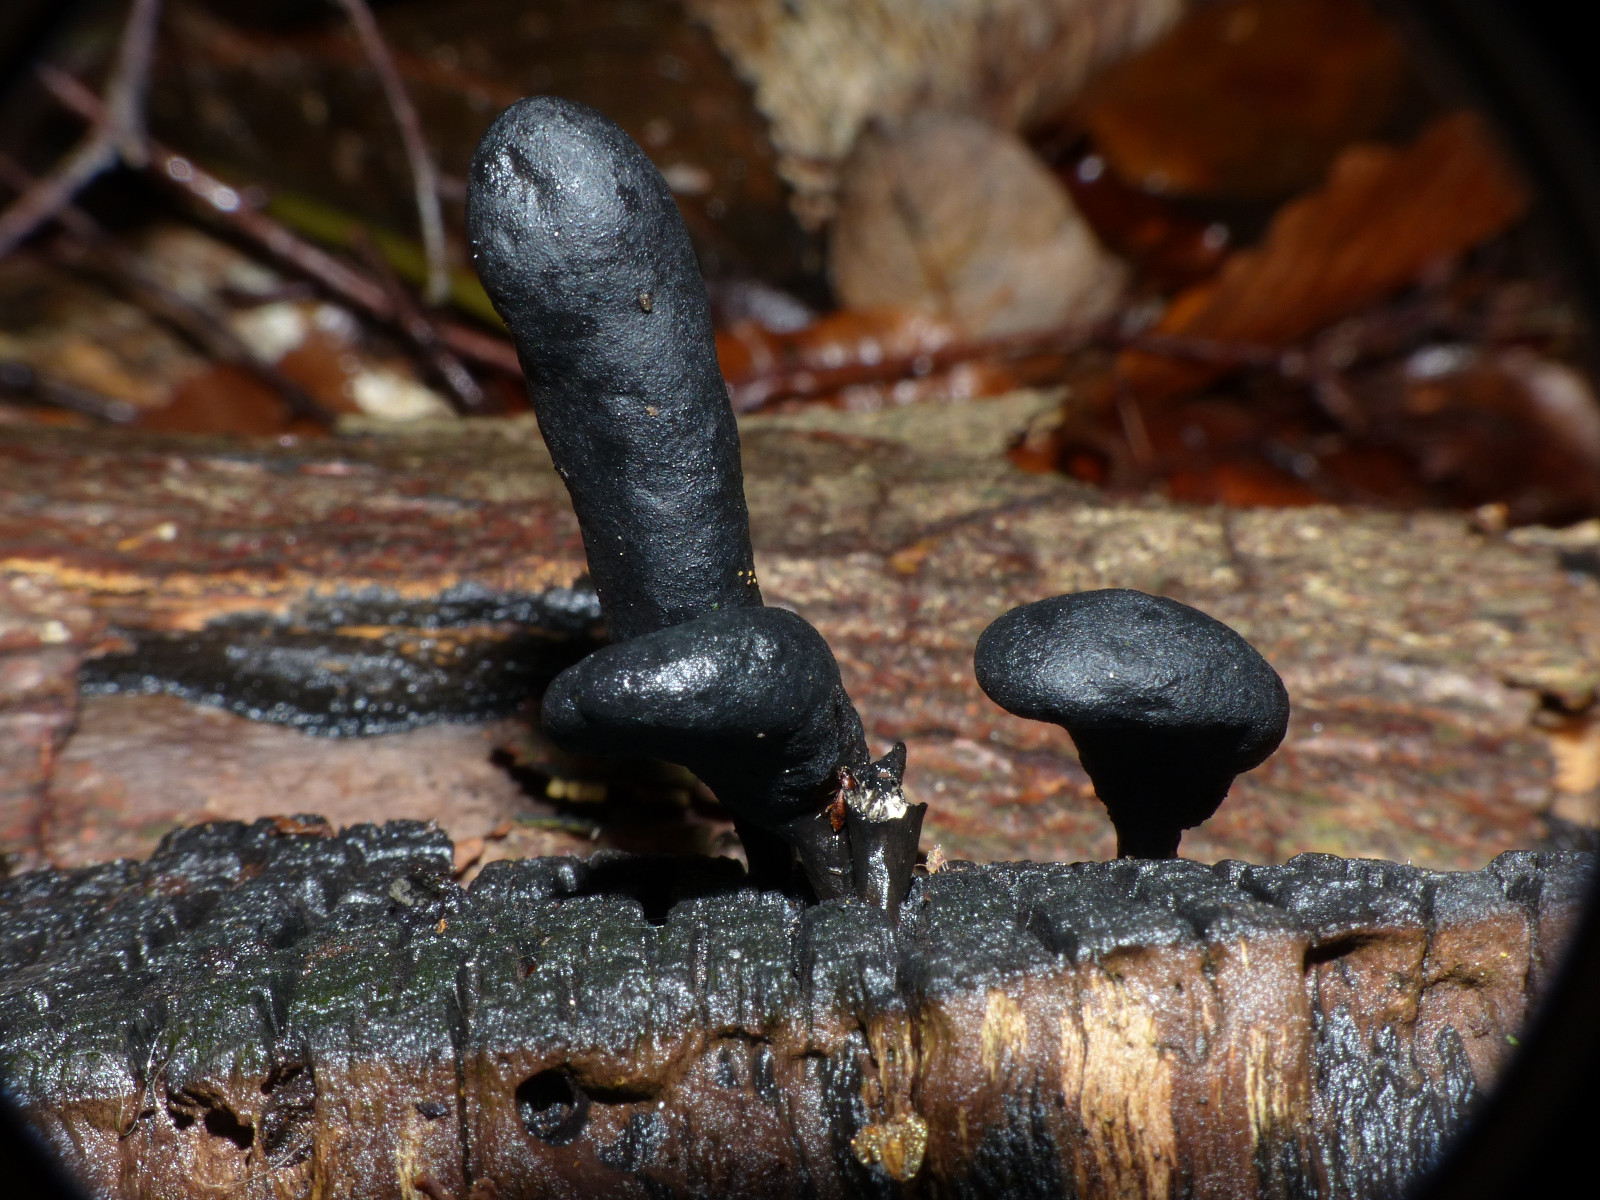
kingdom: Fungi
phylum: Ascomycota
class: Sordariomycetes
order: Xylariales
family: Xylariaceae
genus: Xylaria
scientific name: Xylaria
